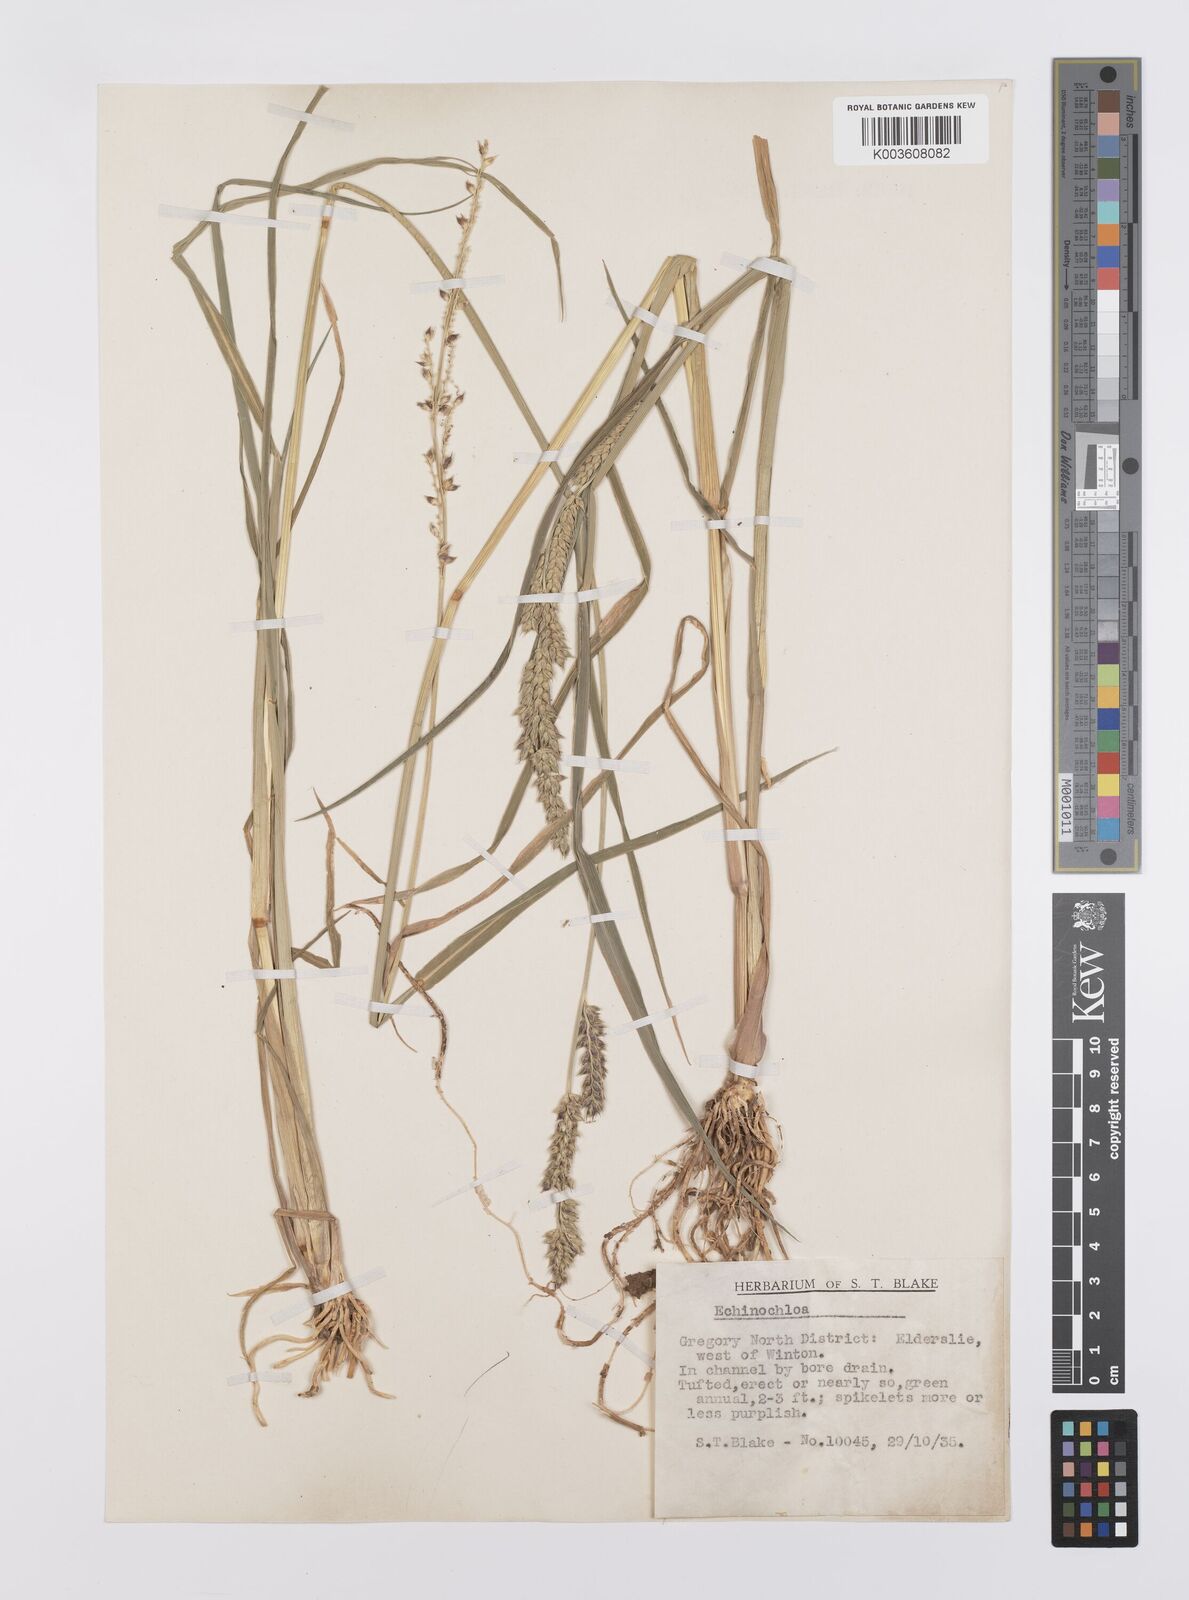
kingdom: Plantae
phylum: Tracheophyta
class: Liliopsida
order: Poales
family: Poaceae
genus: Echinochloa
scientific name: Echinochloa turneriana
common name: Channel millet
